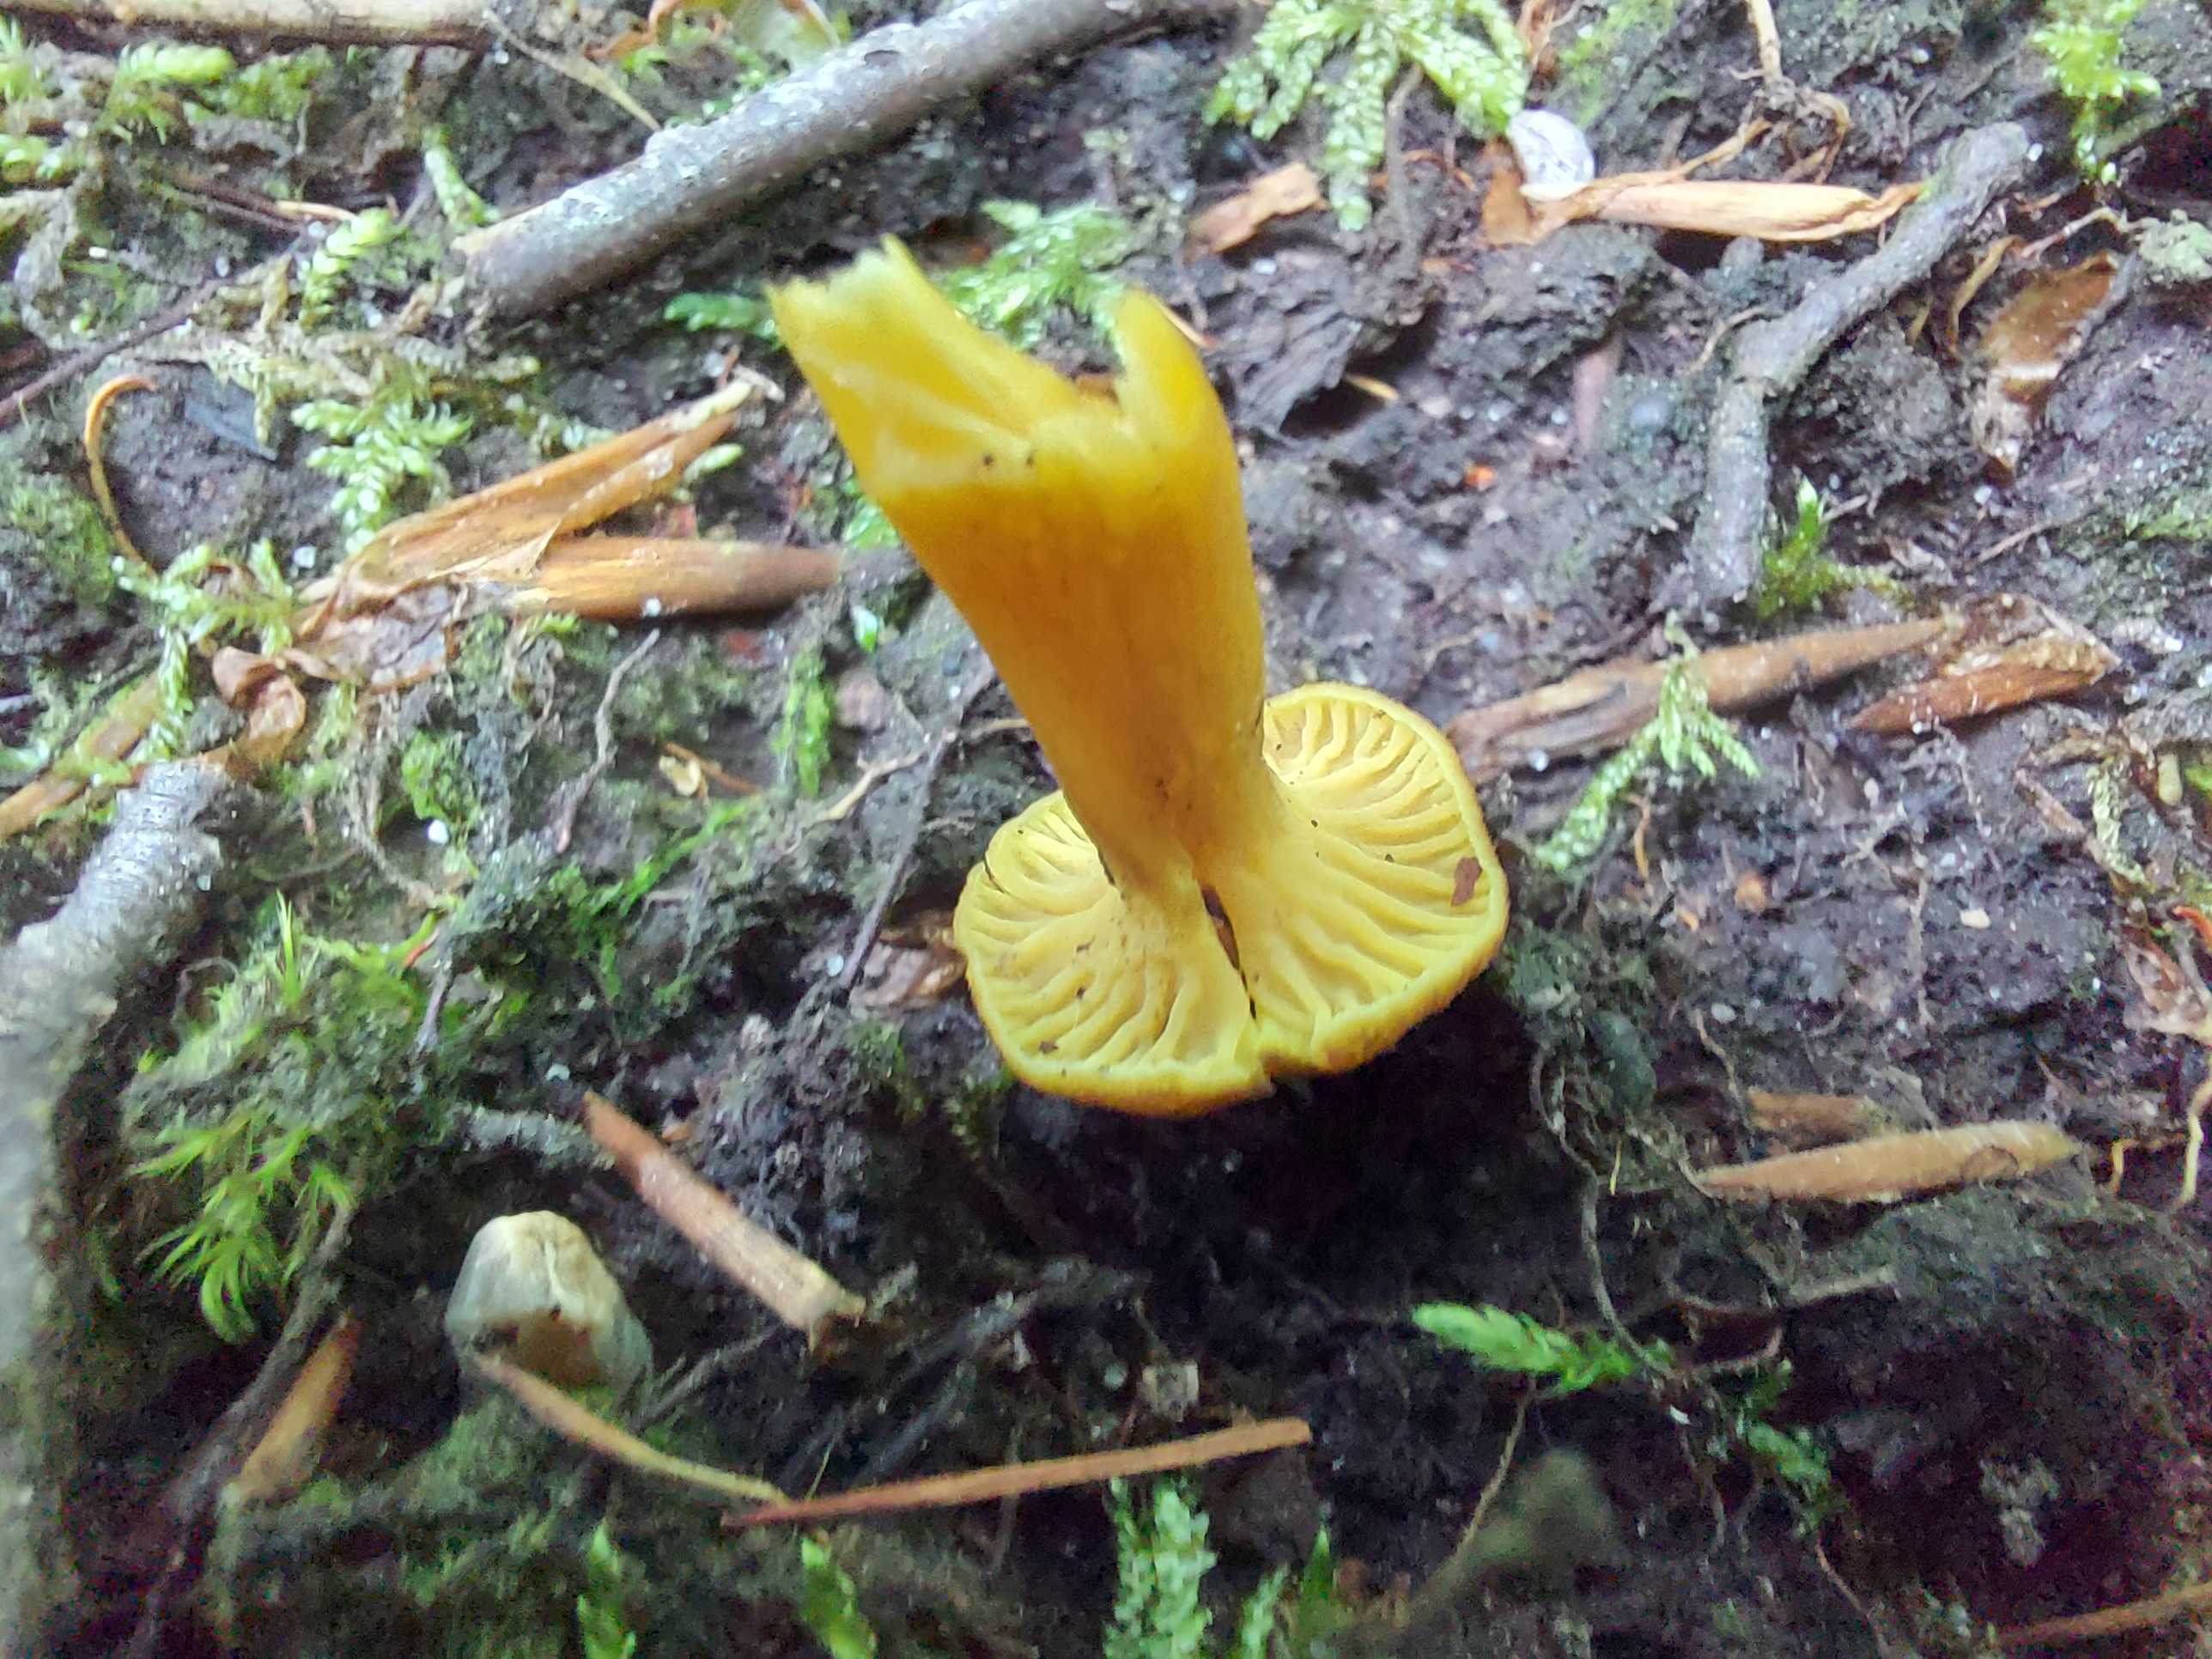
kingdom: Fungi
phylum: Basidiomycota
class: Agaricomycetes
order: Cantharellales
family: Hydnaceae
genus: Craterellus
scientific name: Craterellus tubaeformis
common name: tragt-kantarel
